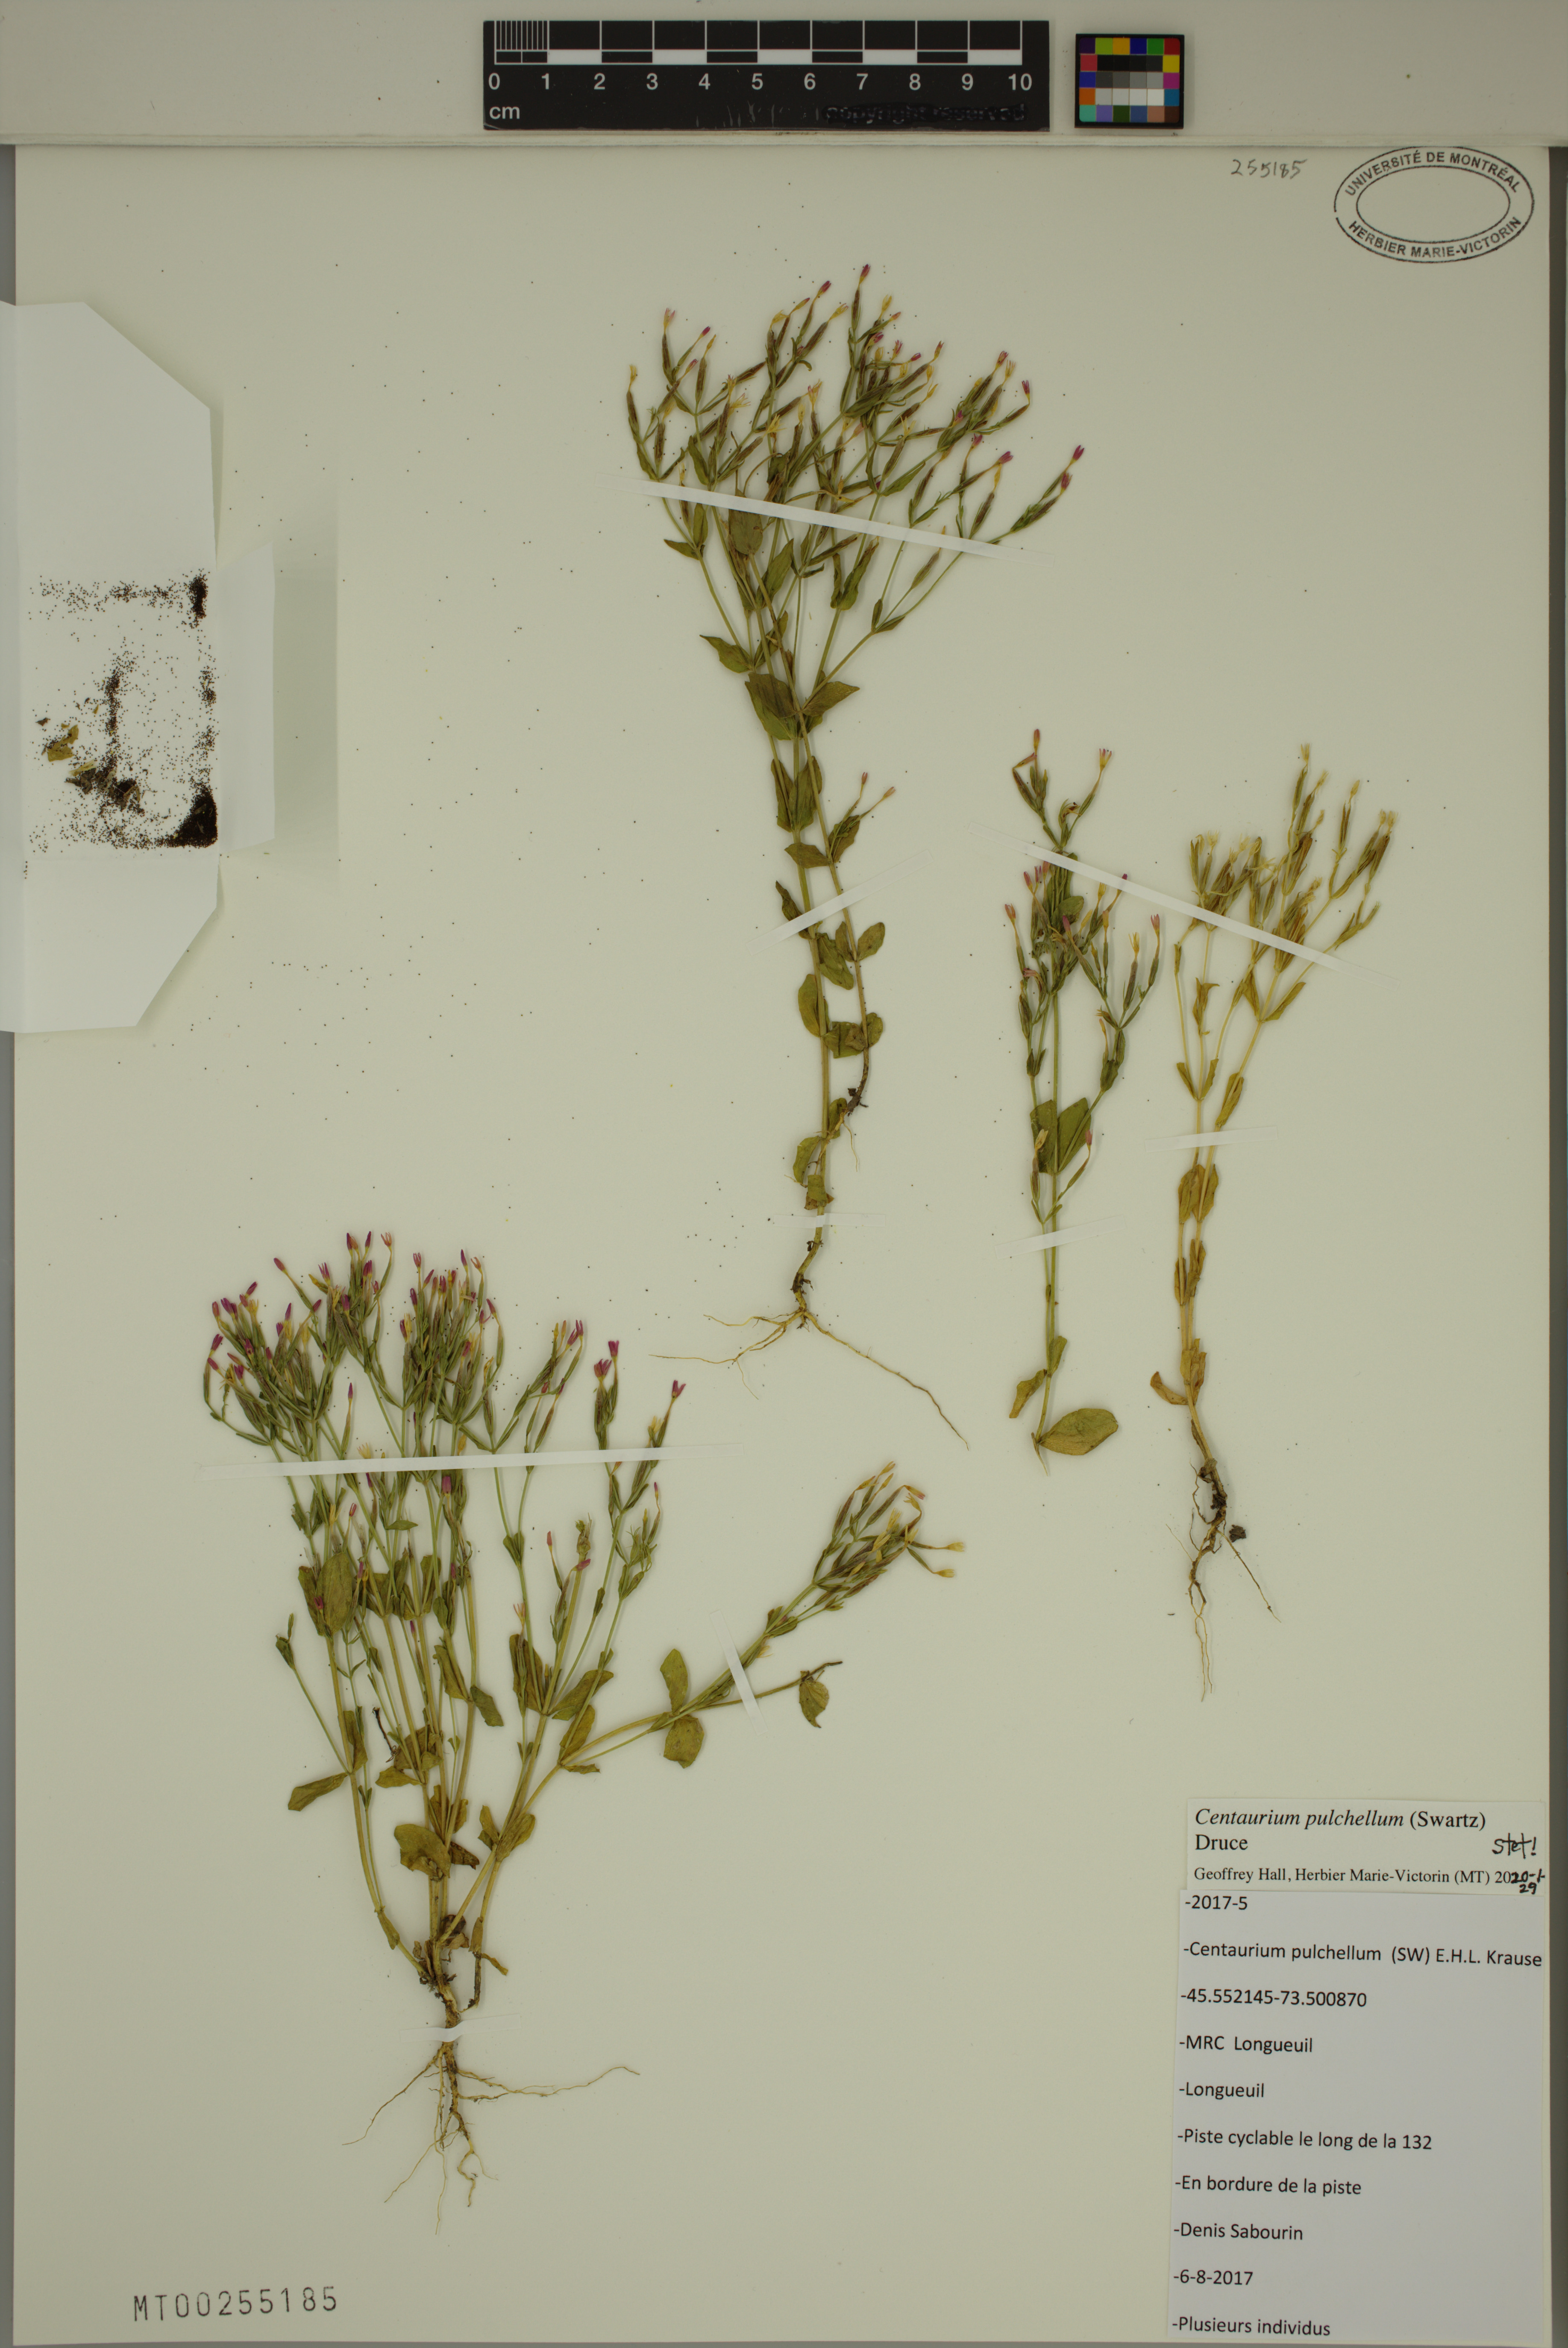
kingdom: Plantae
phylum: Tracheophyta
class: Magnoliopsida
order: Gentianales
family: Gentianaceae
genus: Centaurium
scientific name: Centaurium pulchellum
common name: Lesser centaury
